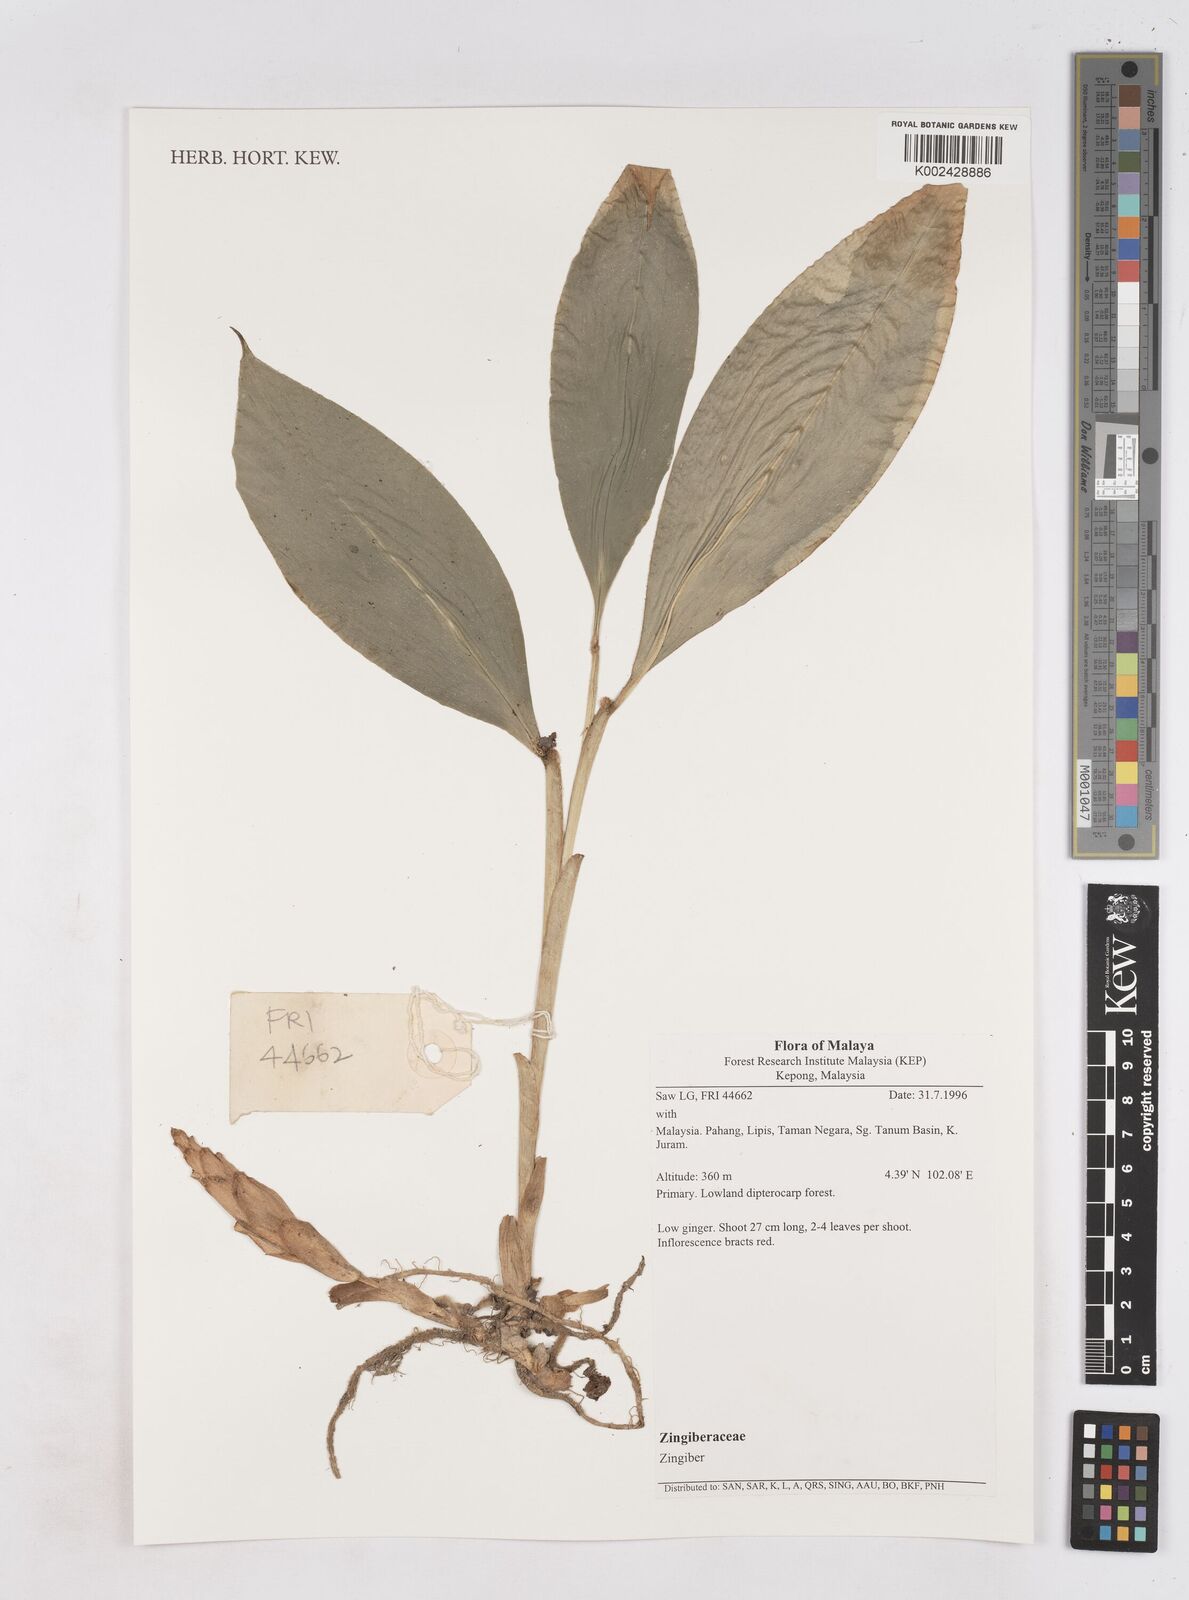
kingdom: Plantae
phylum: Tracheophyta
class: Liliopsida
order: Zingiberales
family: Zingiberaceae
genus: Zingiber
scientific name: Zingiber
